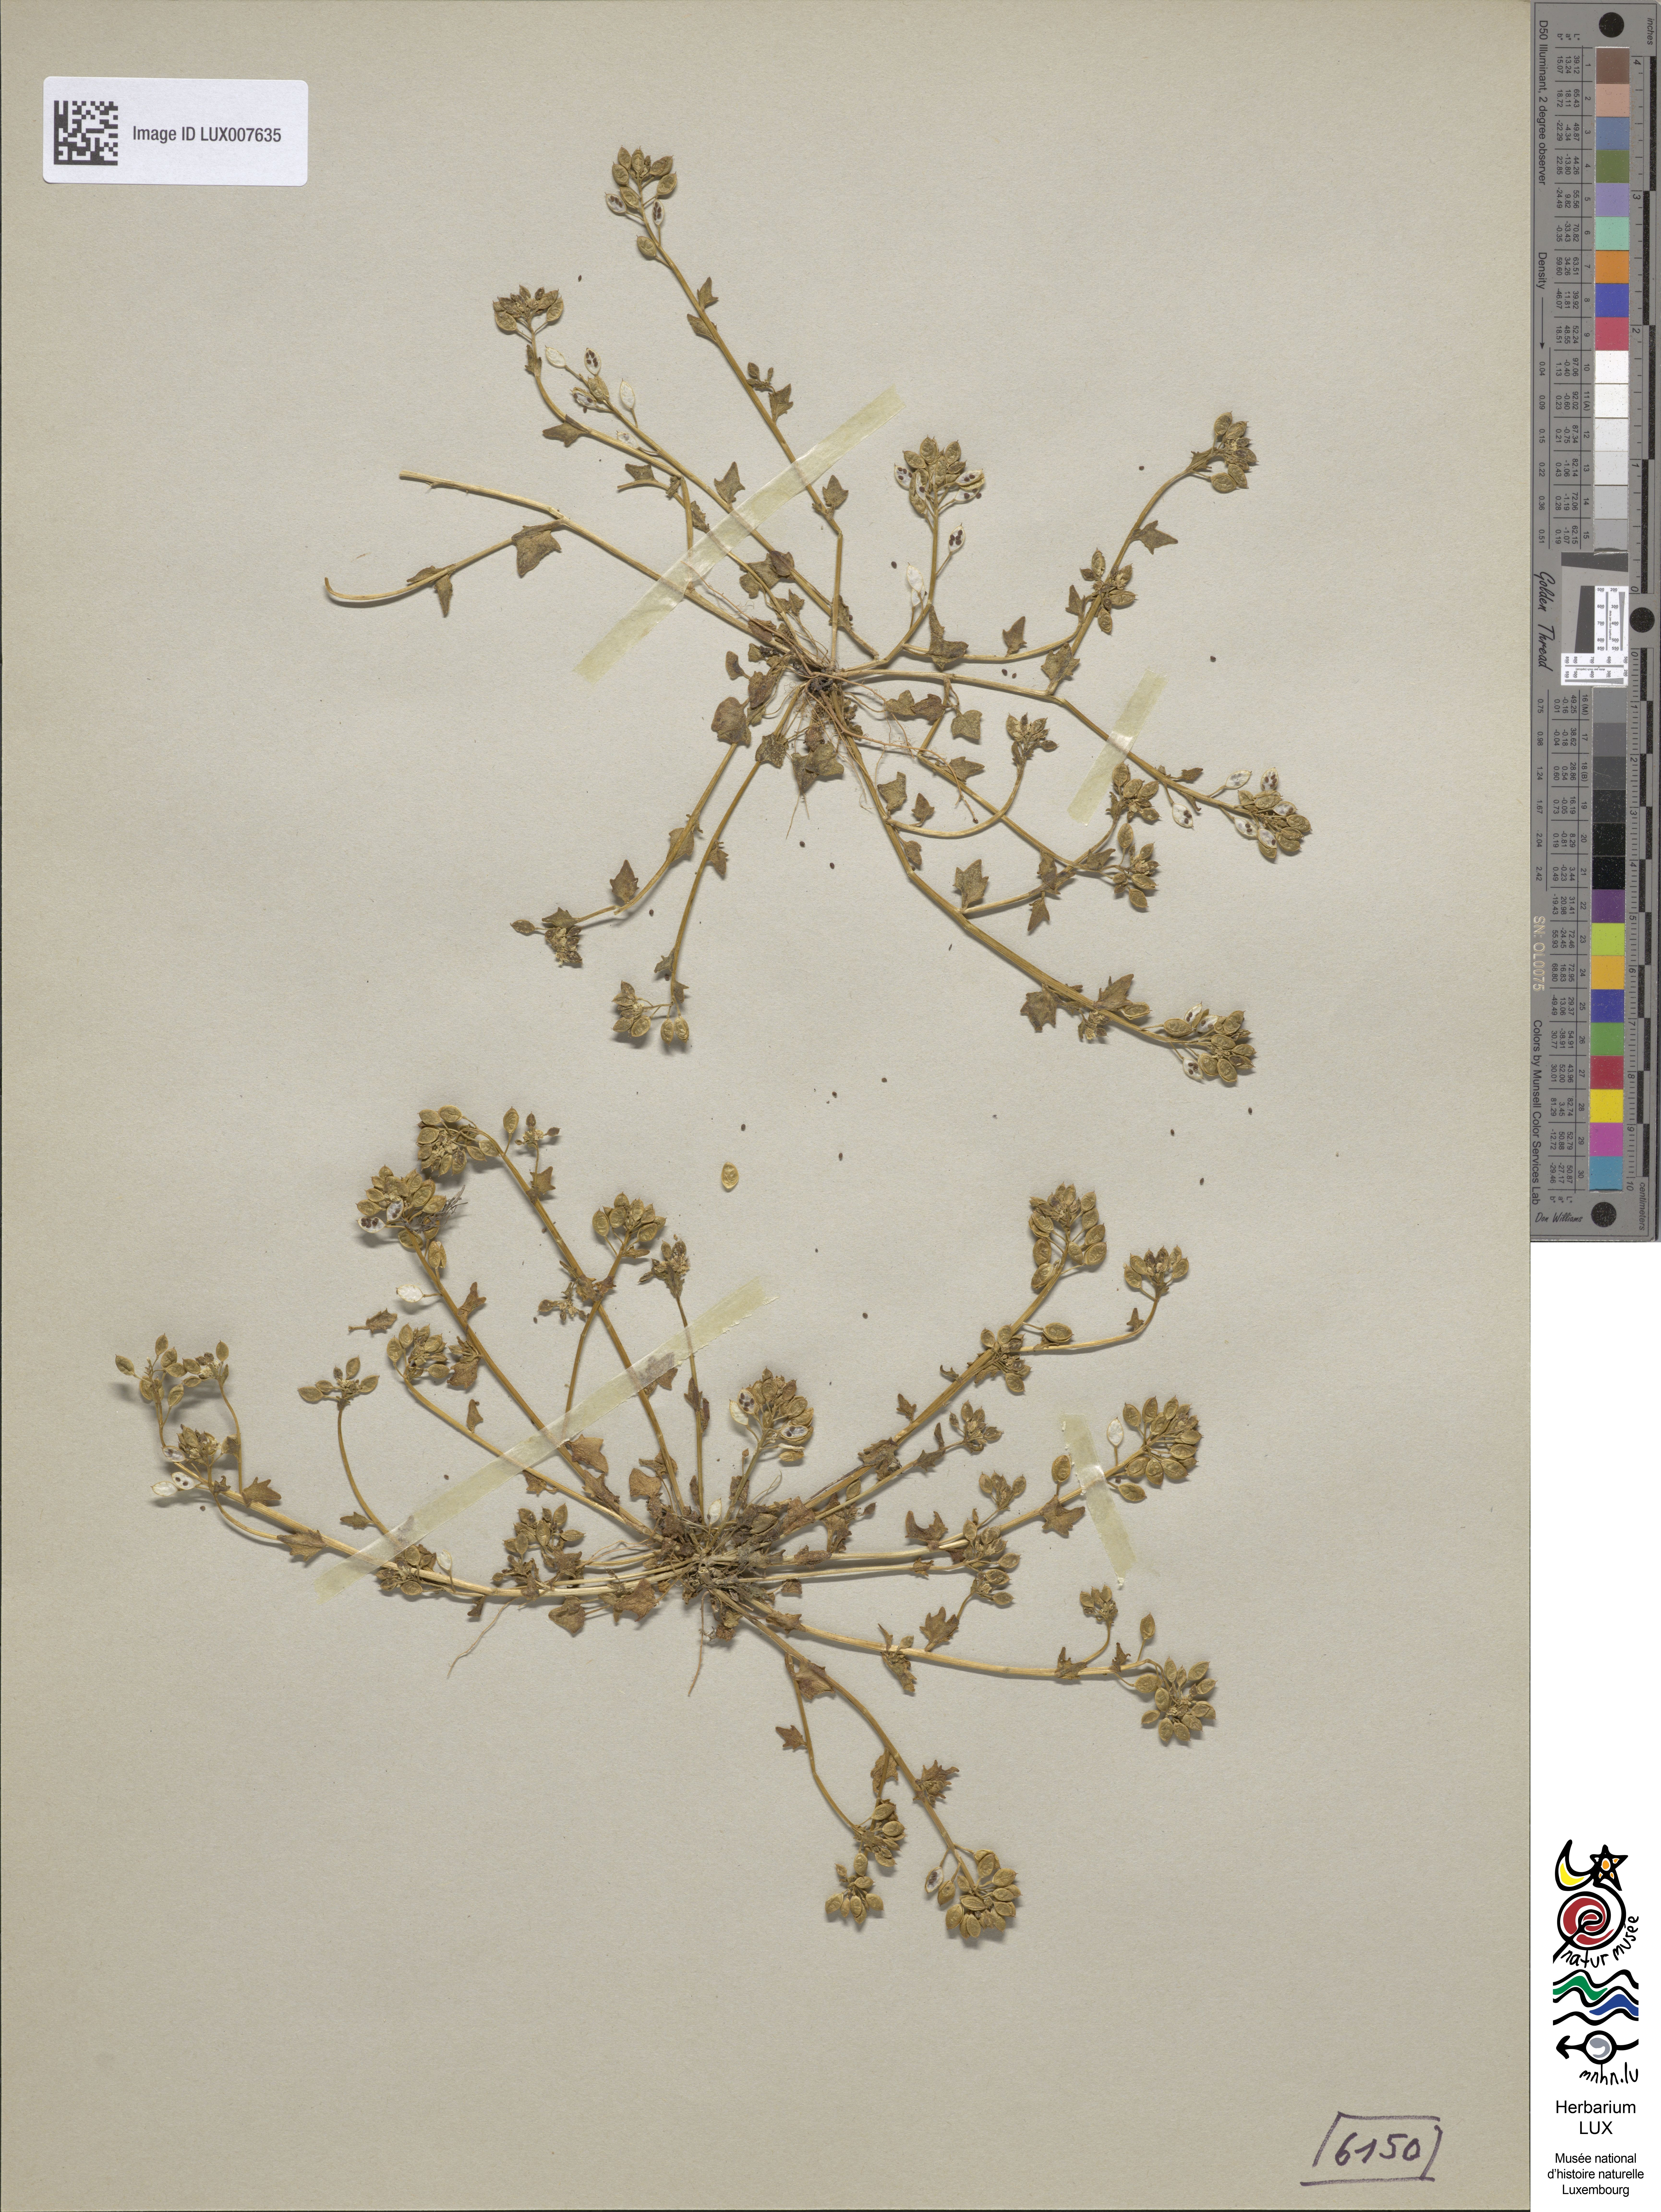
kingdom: Plantae
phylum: Tracheophyta
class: Magnoliopsida
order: Brassicales
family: Brassicaceae
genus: Cochlearia
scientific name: Cochlearia danica
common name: Early scurvygrass
